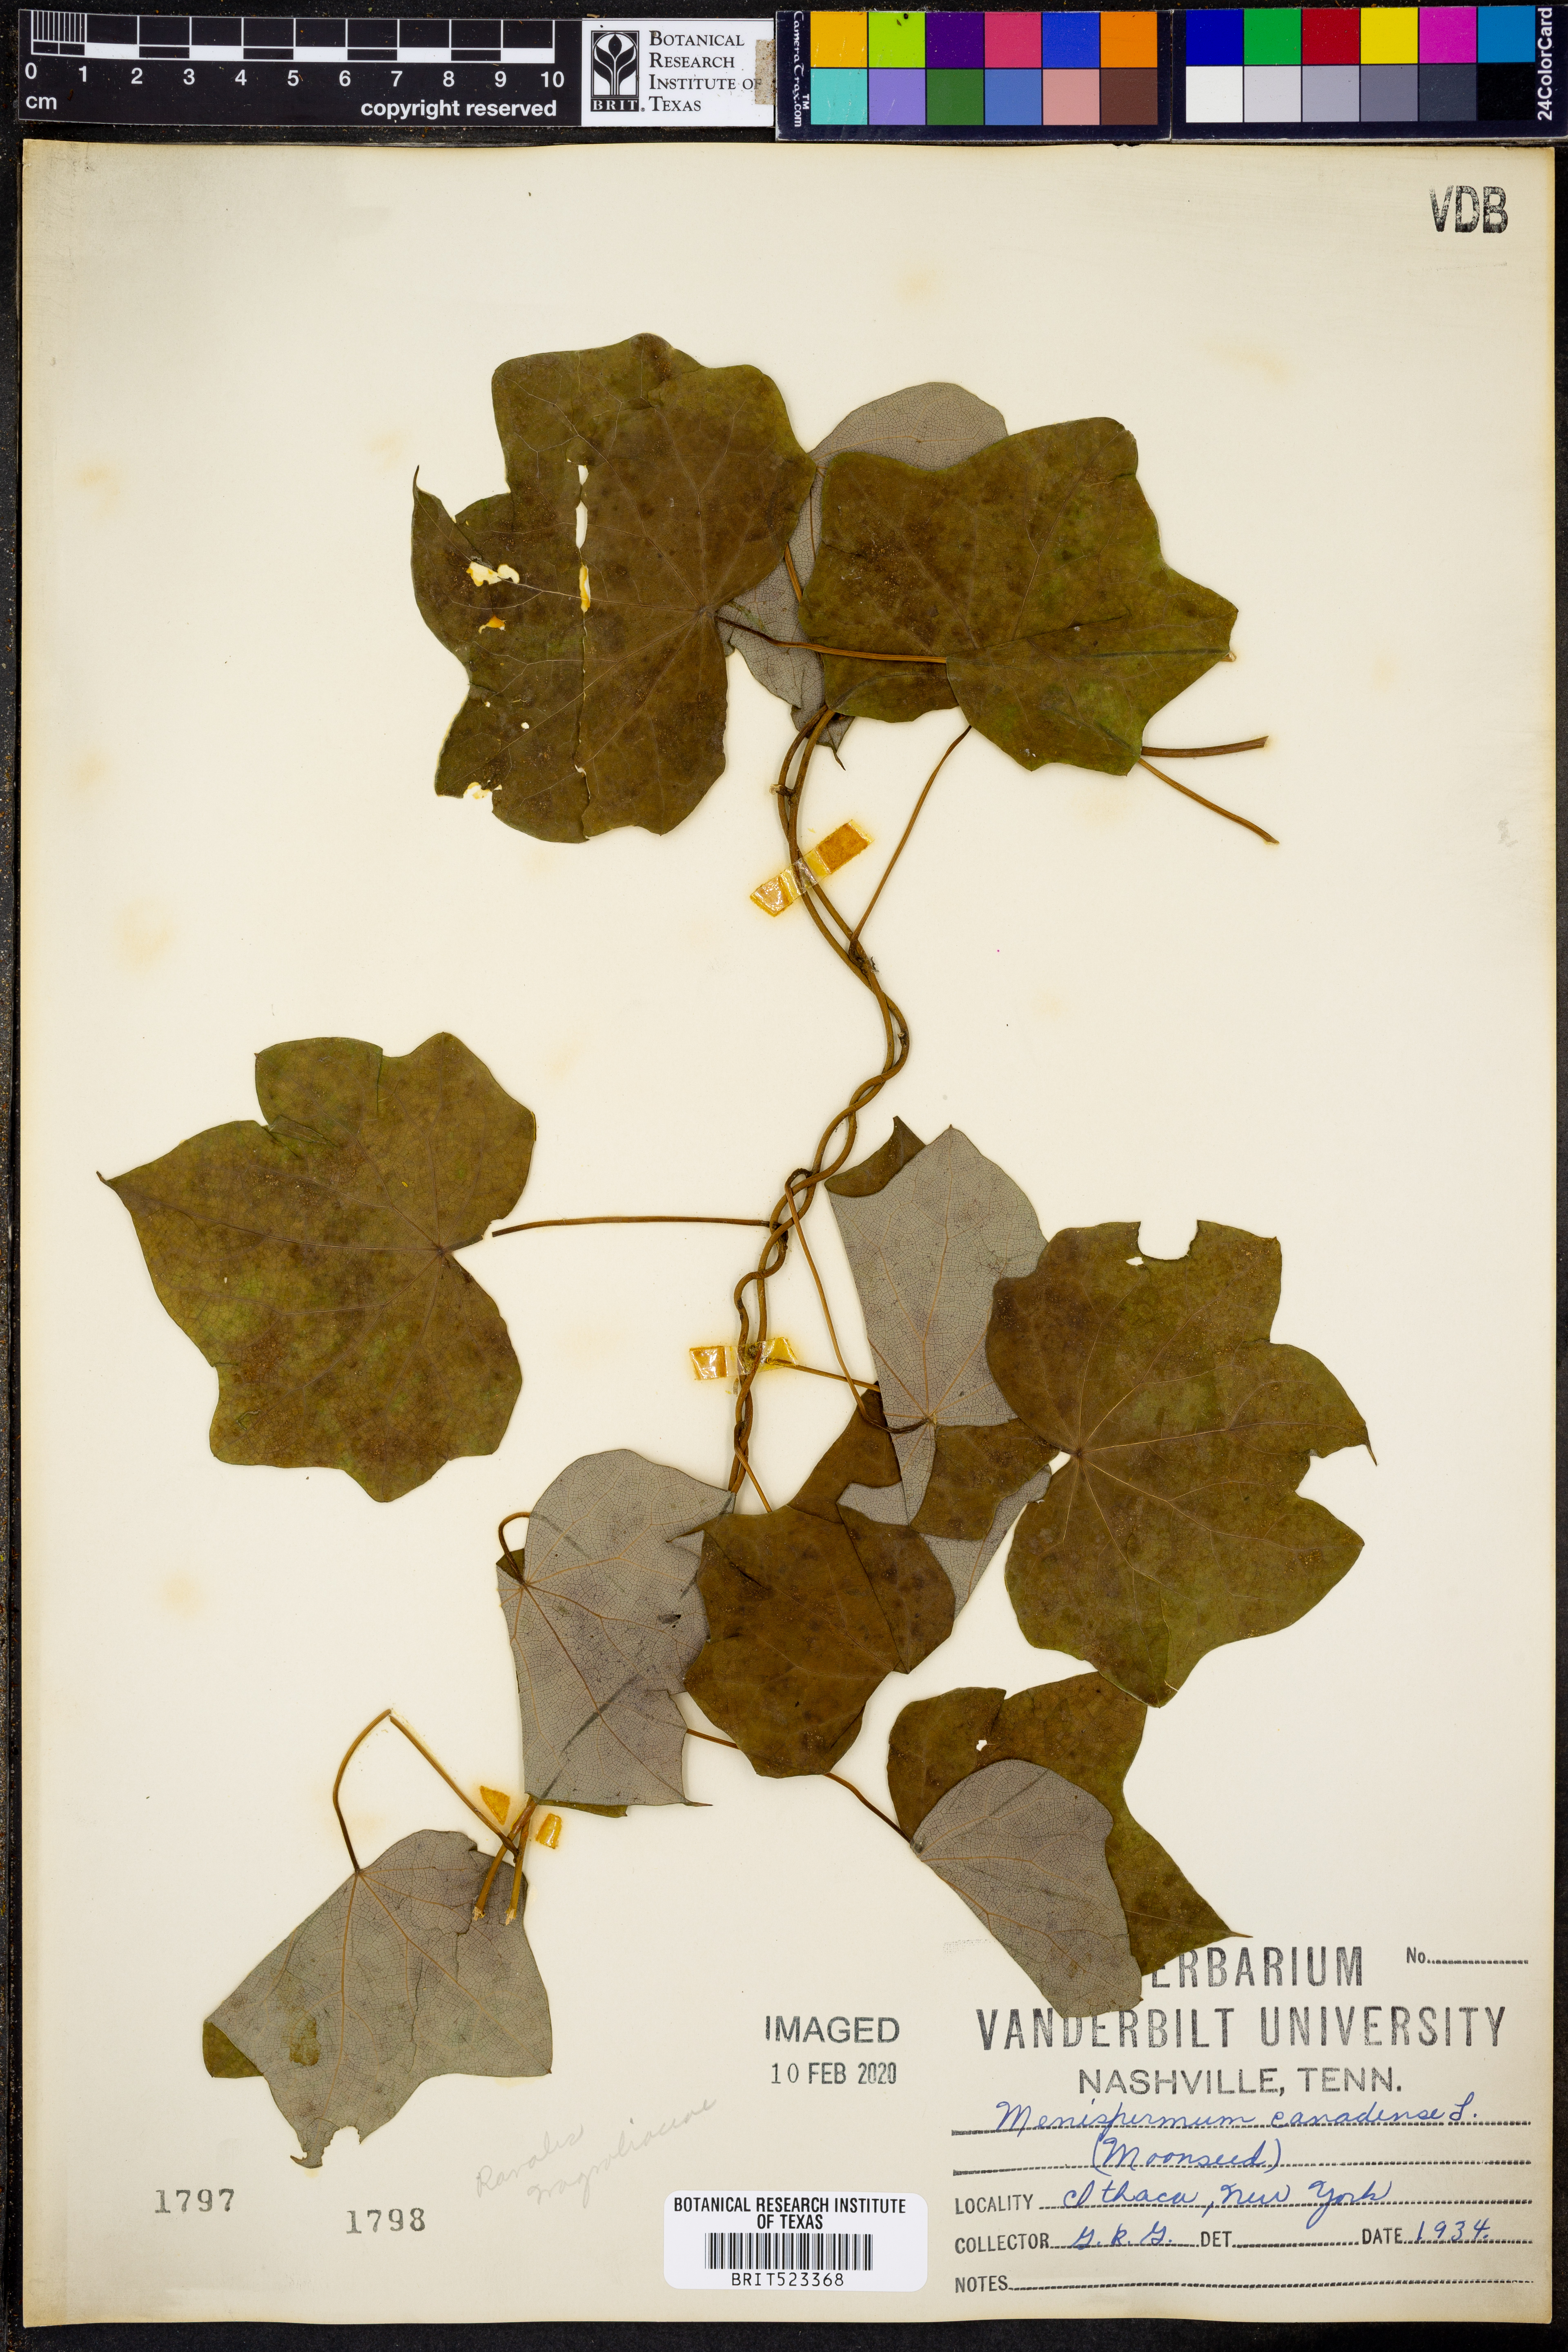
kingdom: Plantae
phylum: Tracheophyta
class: Magnoliopsida
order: Ranunculales
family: Menispermaceae
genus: Menispermum
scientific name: Menispermum canadense
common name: Moonseed
